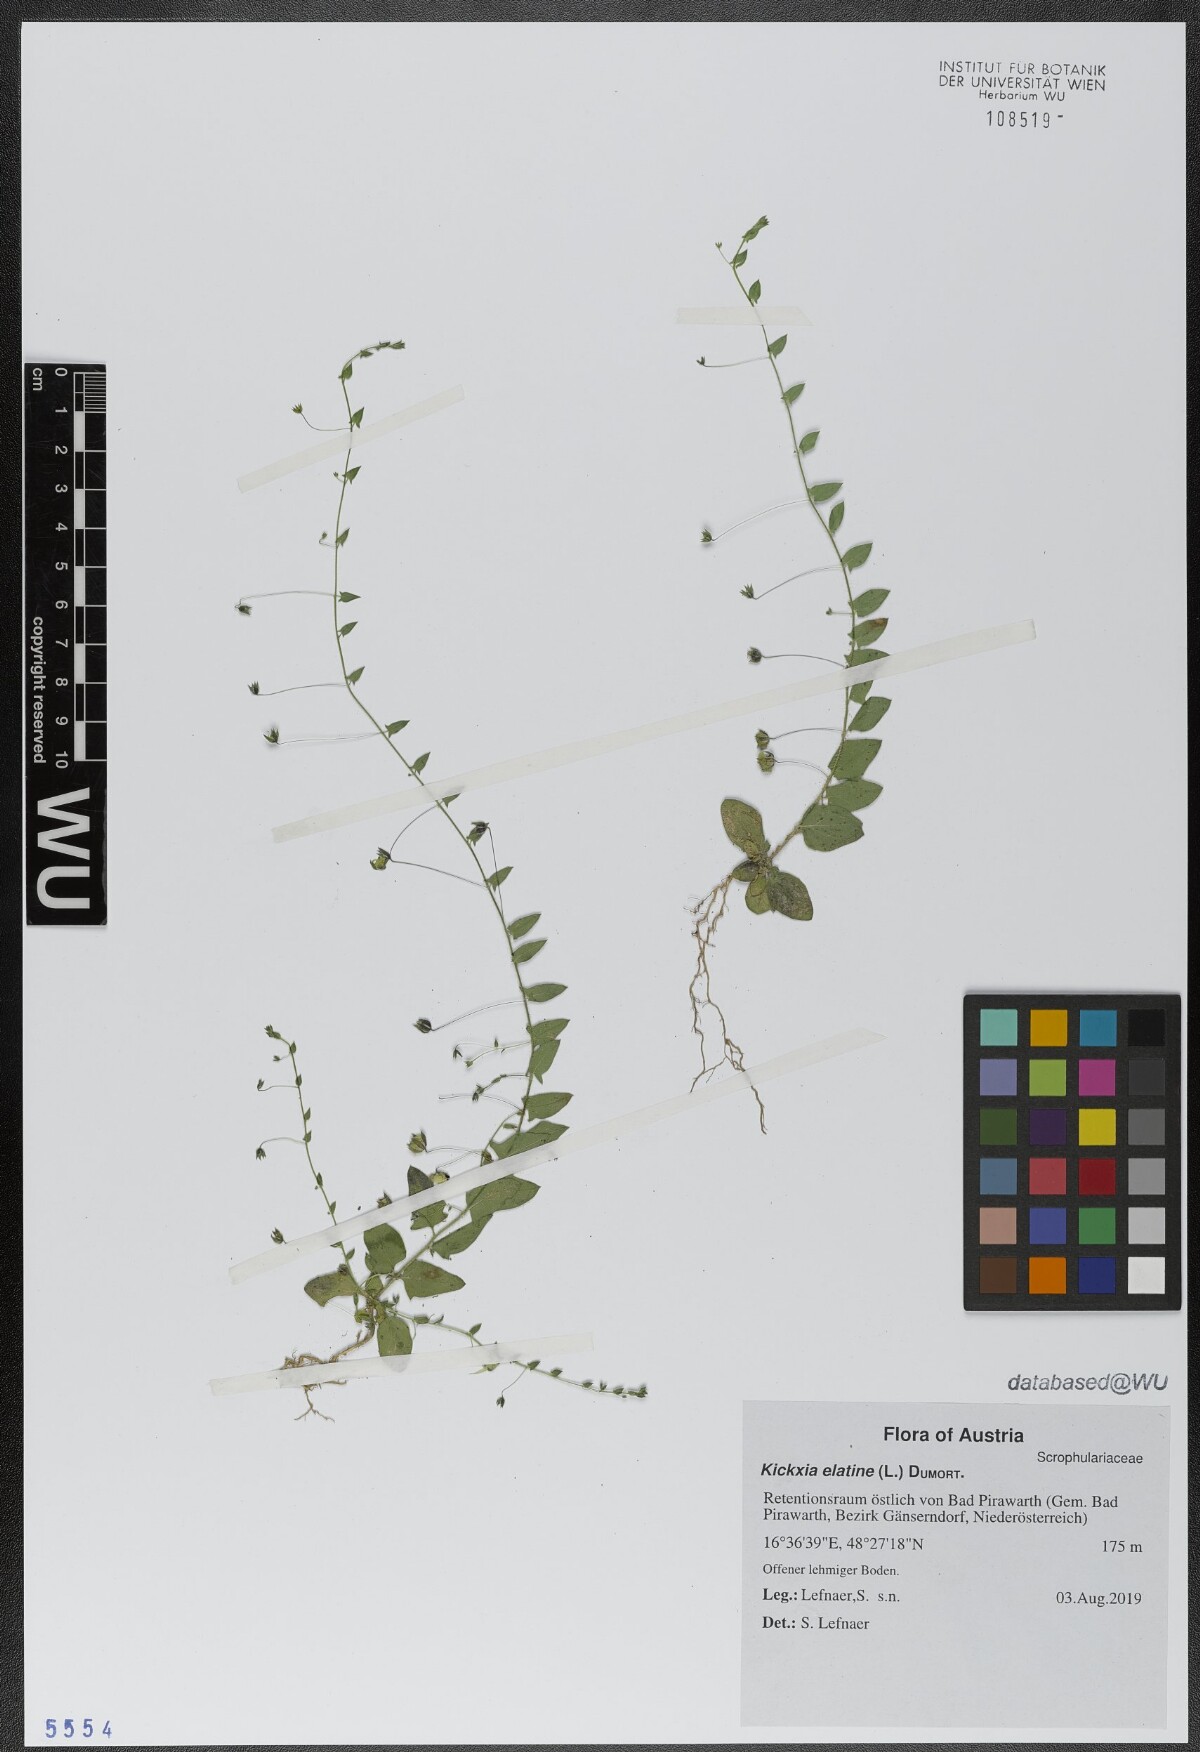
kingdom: Plantae
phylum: Tracheophyta
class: Magnoliopsida
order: Lamiales
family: Plantaginaceae
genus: Kickxia
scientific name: Kickxia elatine
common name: Sharp-leaved fluellen
